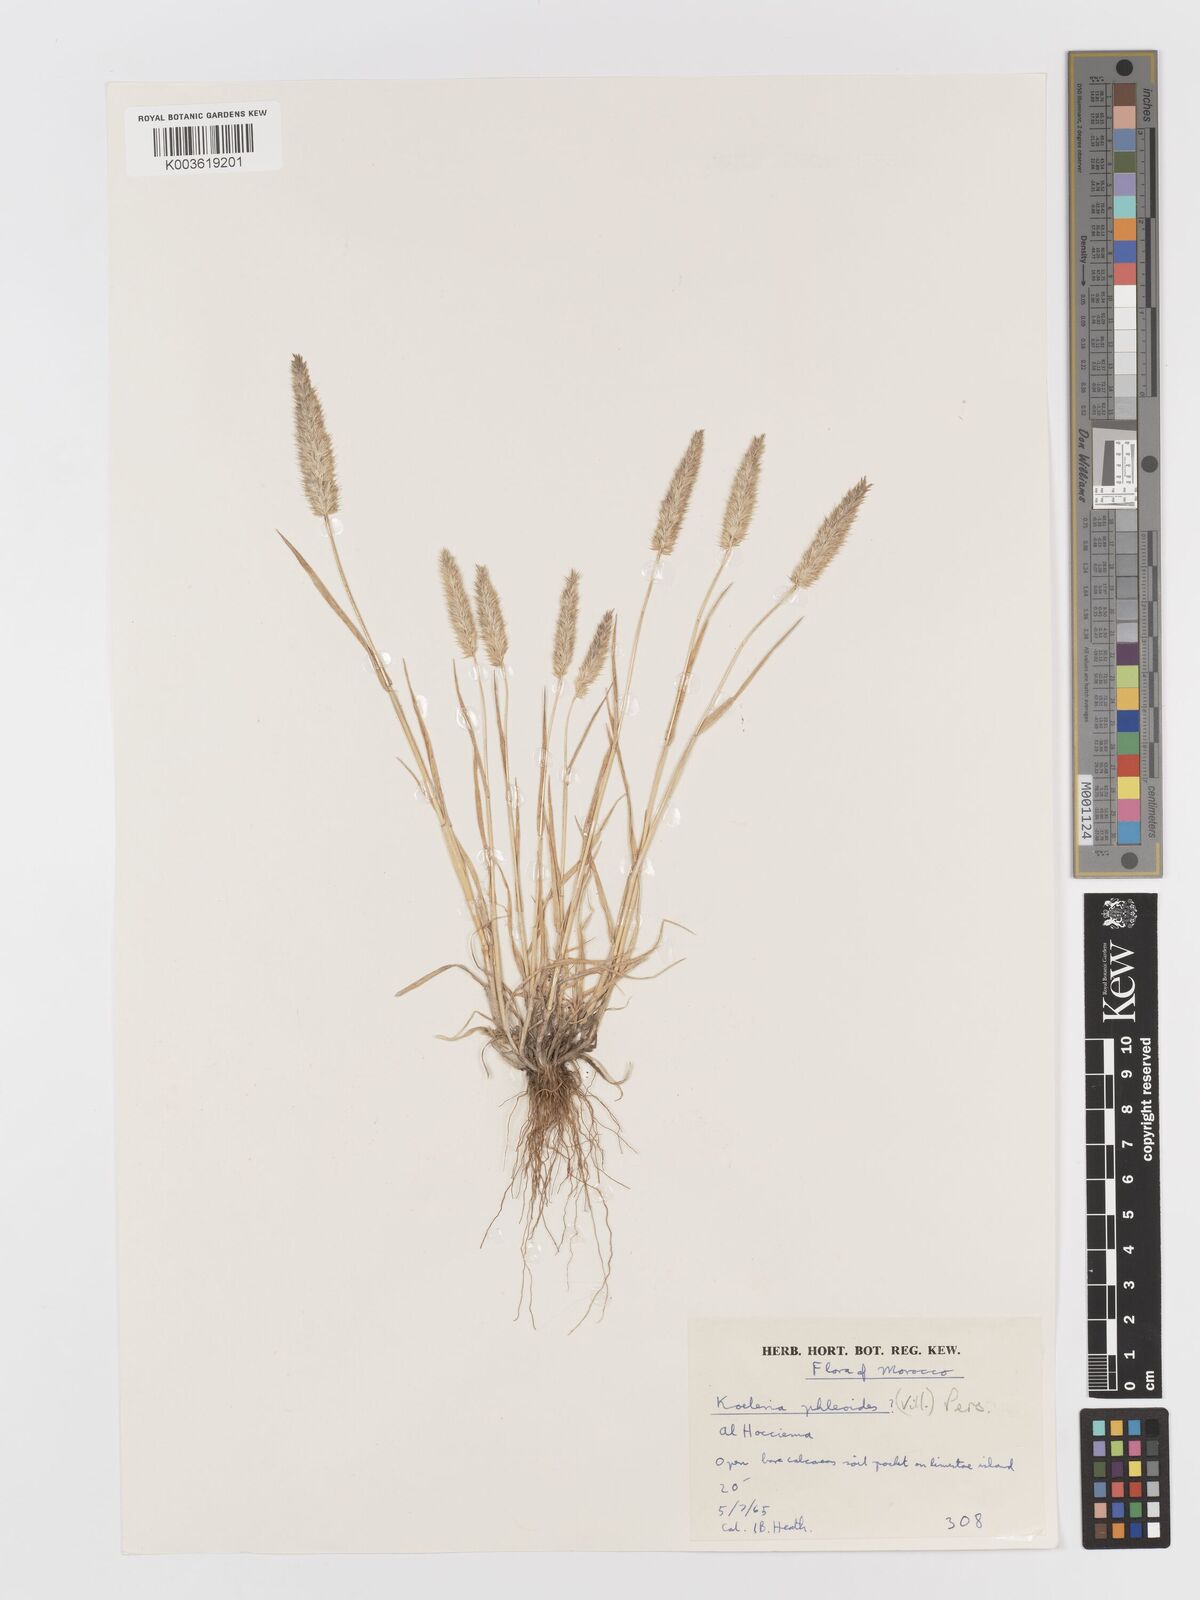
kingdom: Plantae
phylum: Tracheophyta
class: Liliopsida
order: Poales
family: Poaceae
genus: Rostraria
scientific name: Rostraria cristata
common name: Mediterranean hair-grass
